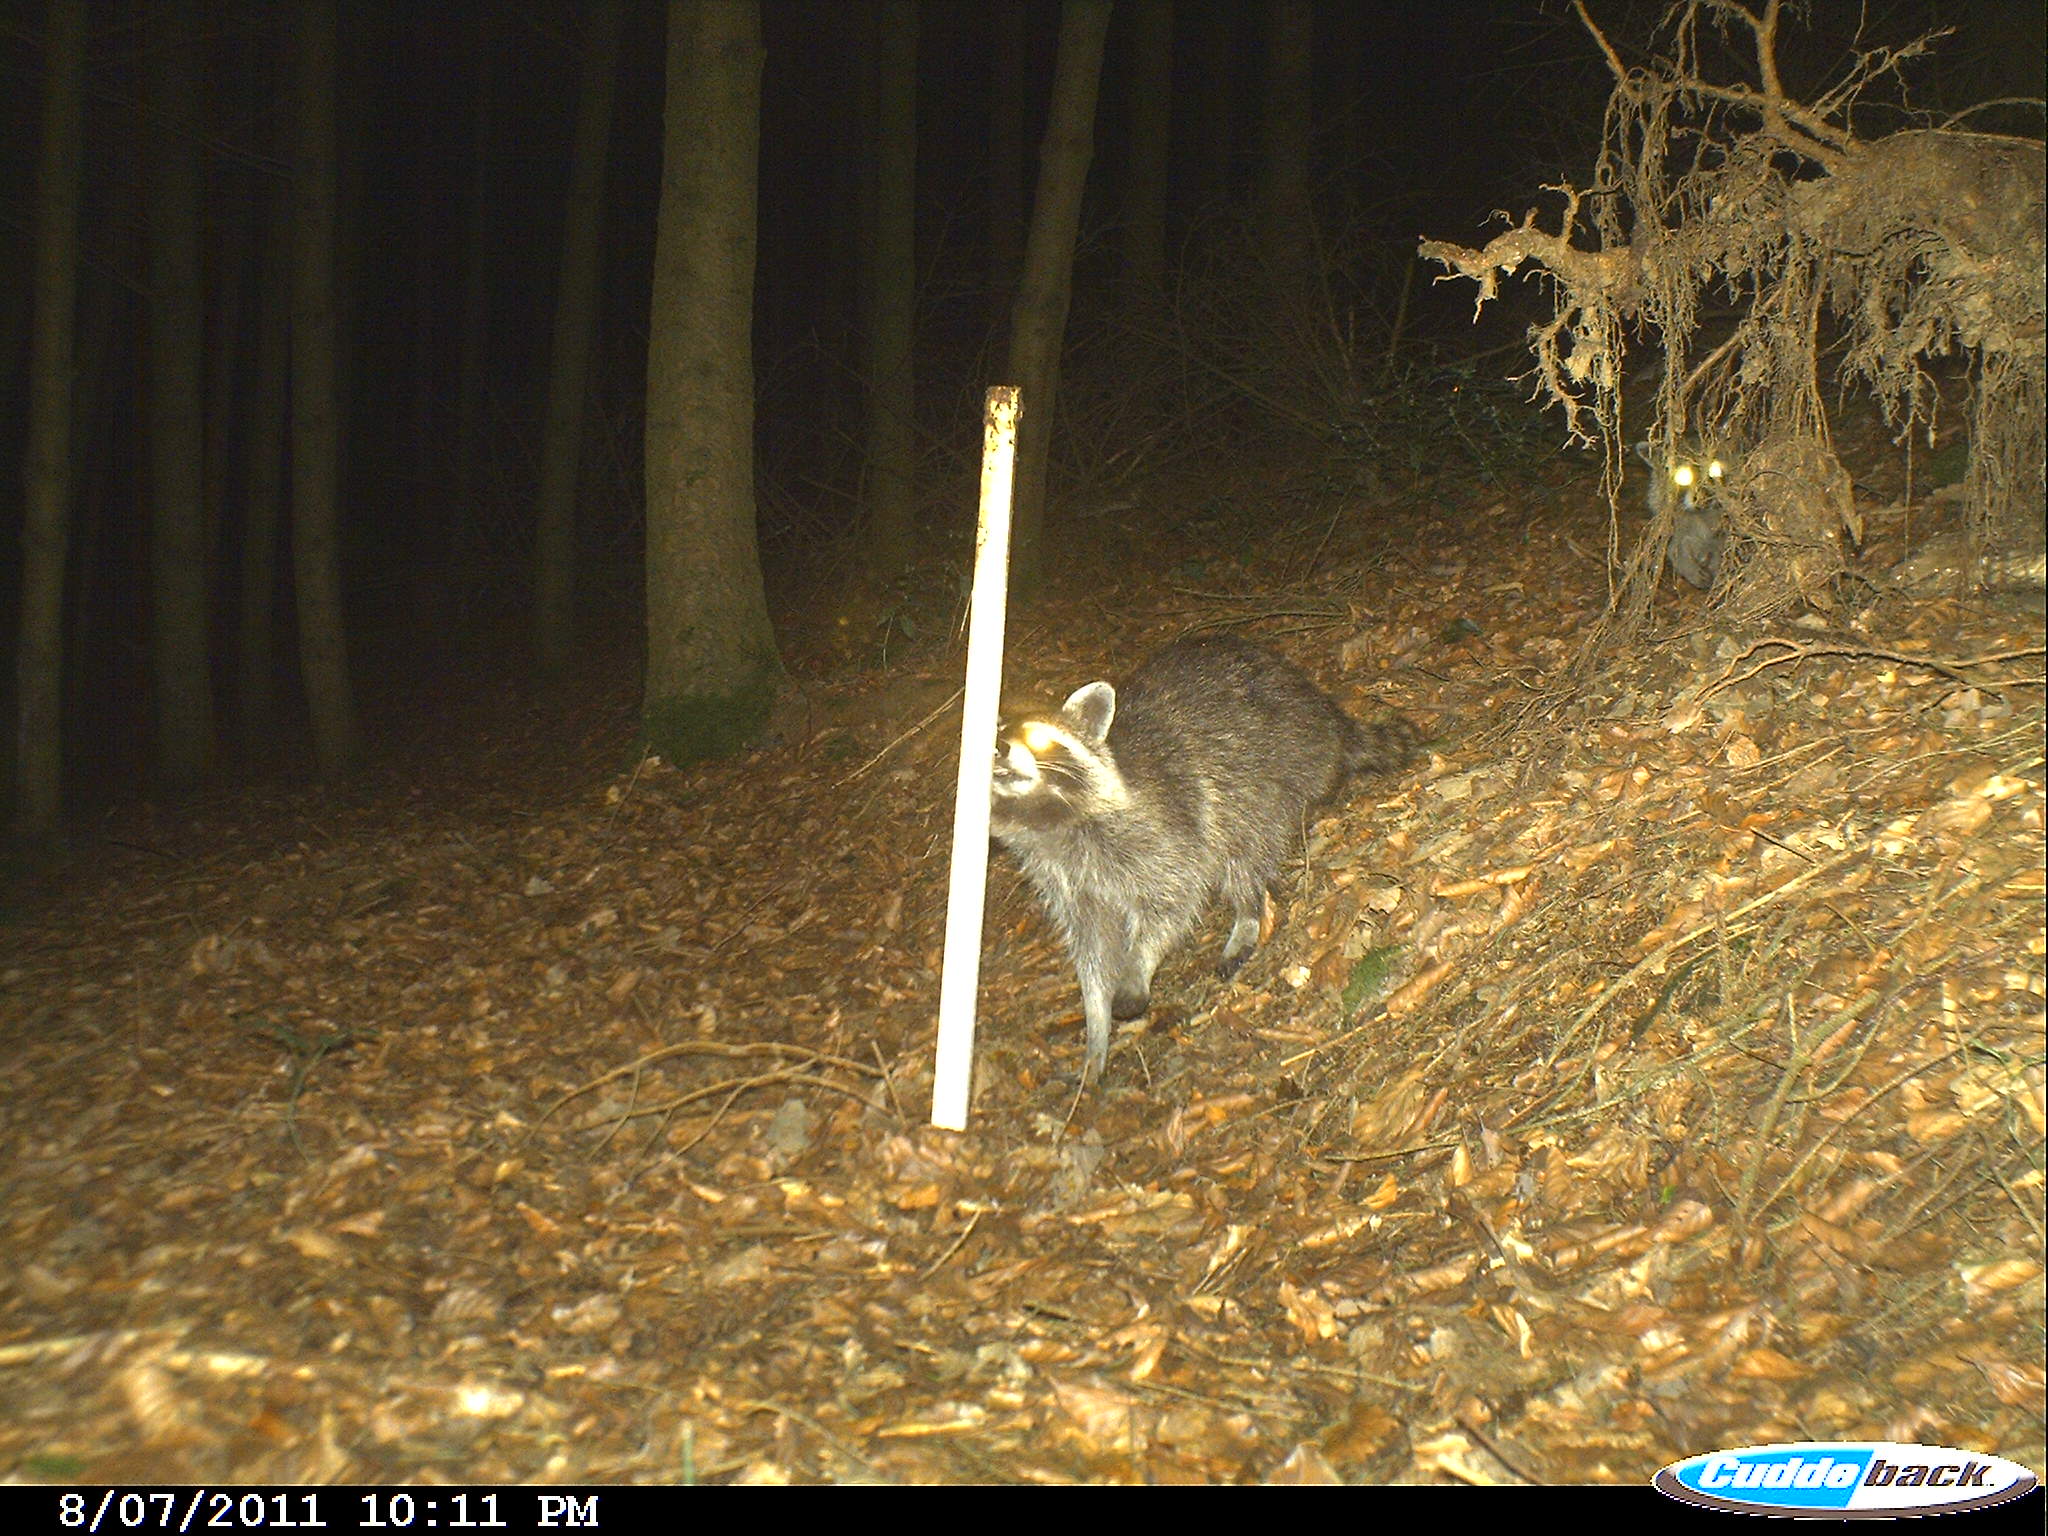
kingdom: Animalia
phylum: Chordata
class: Mammalia
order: Carnivora
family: Procyonidae
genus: Procyon
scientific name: Procyon lotor
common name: Raccoon
